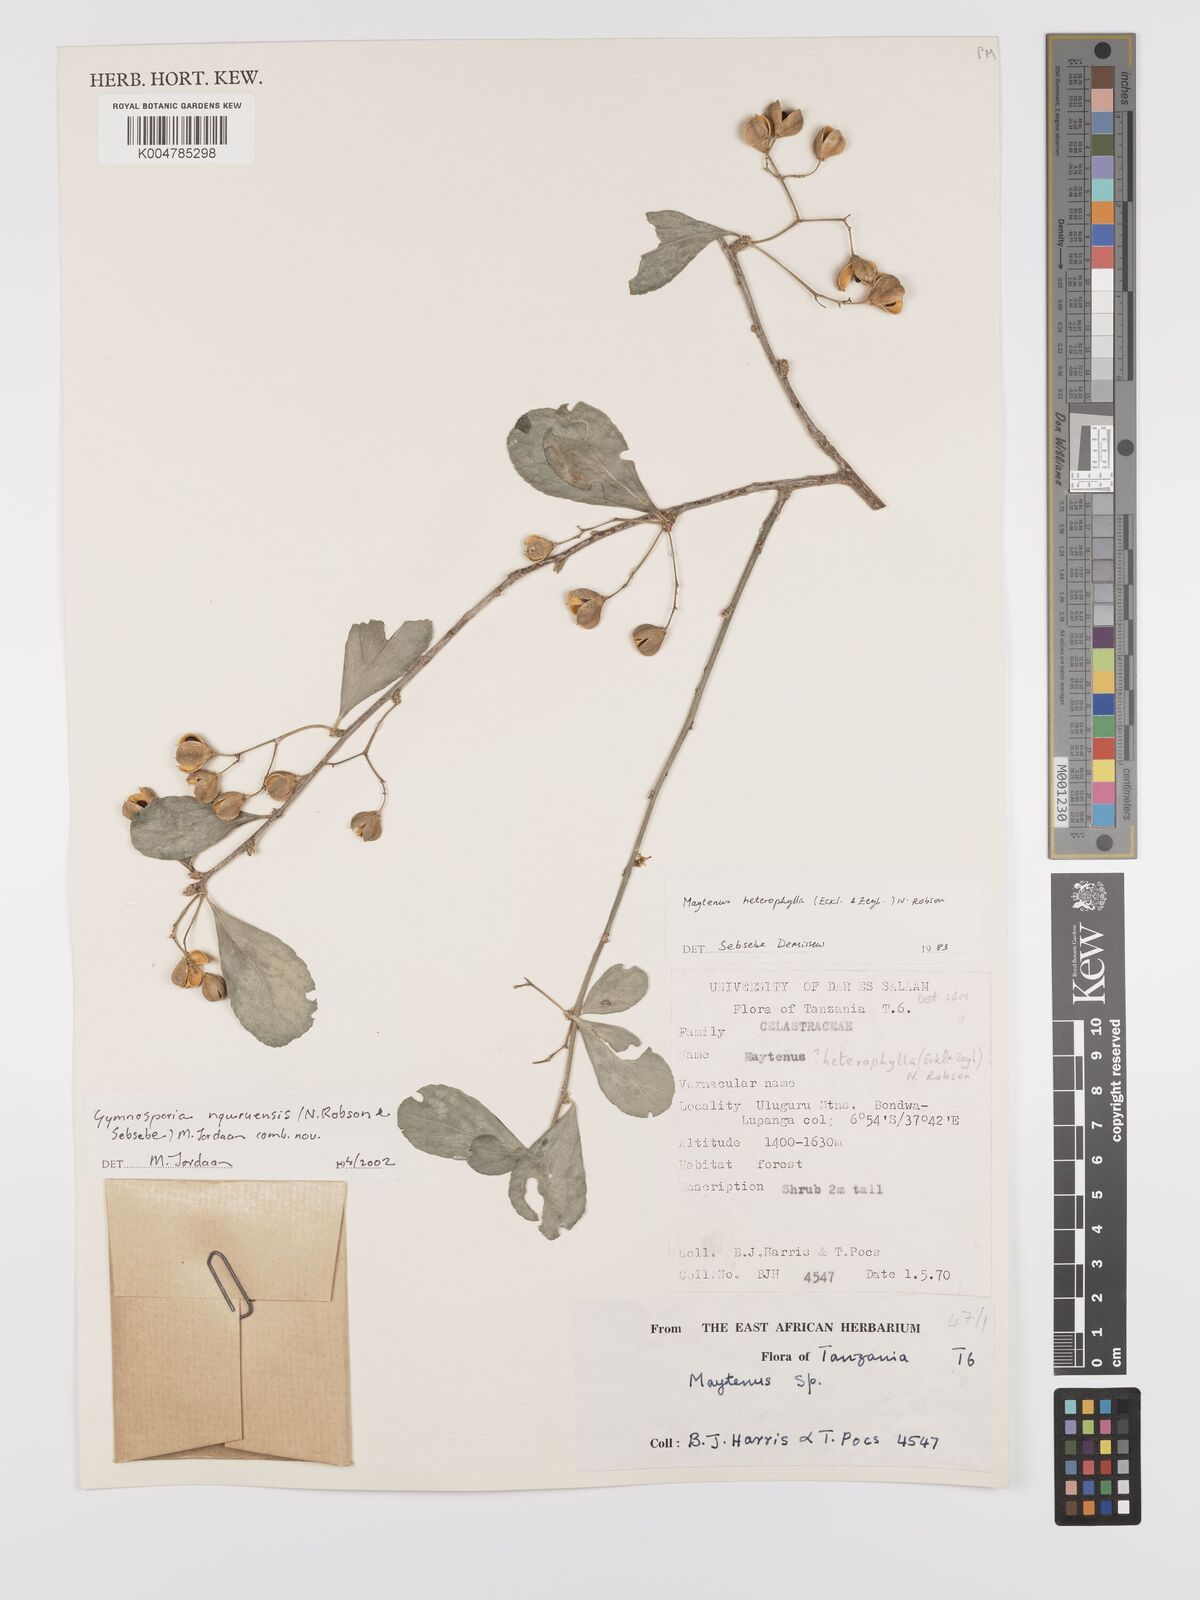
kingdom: Plantae
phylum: Tracheophyta
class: Magnoliopsida
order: Celastrales
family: Celastraceae
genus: Gymnosporia
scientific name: Gymnosporia nguruensis
